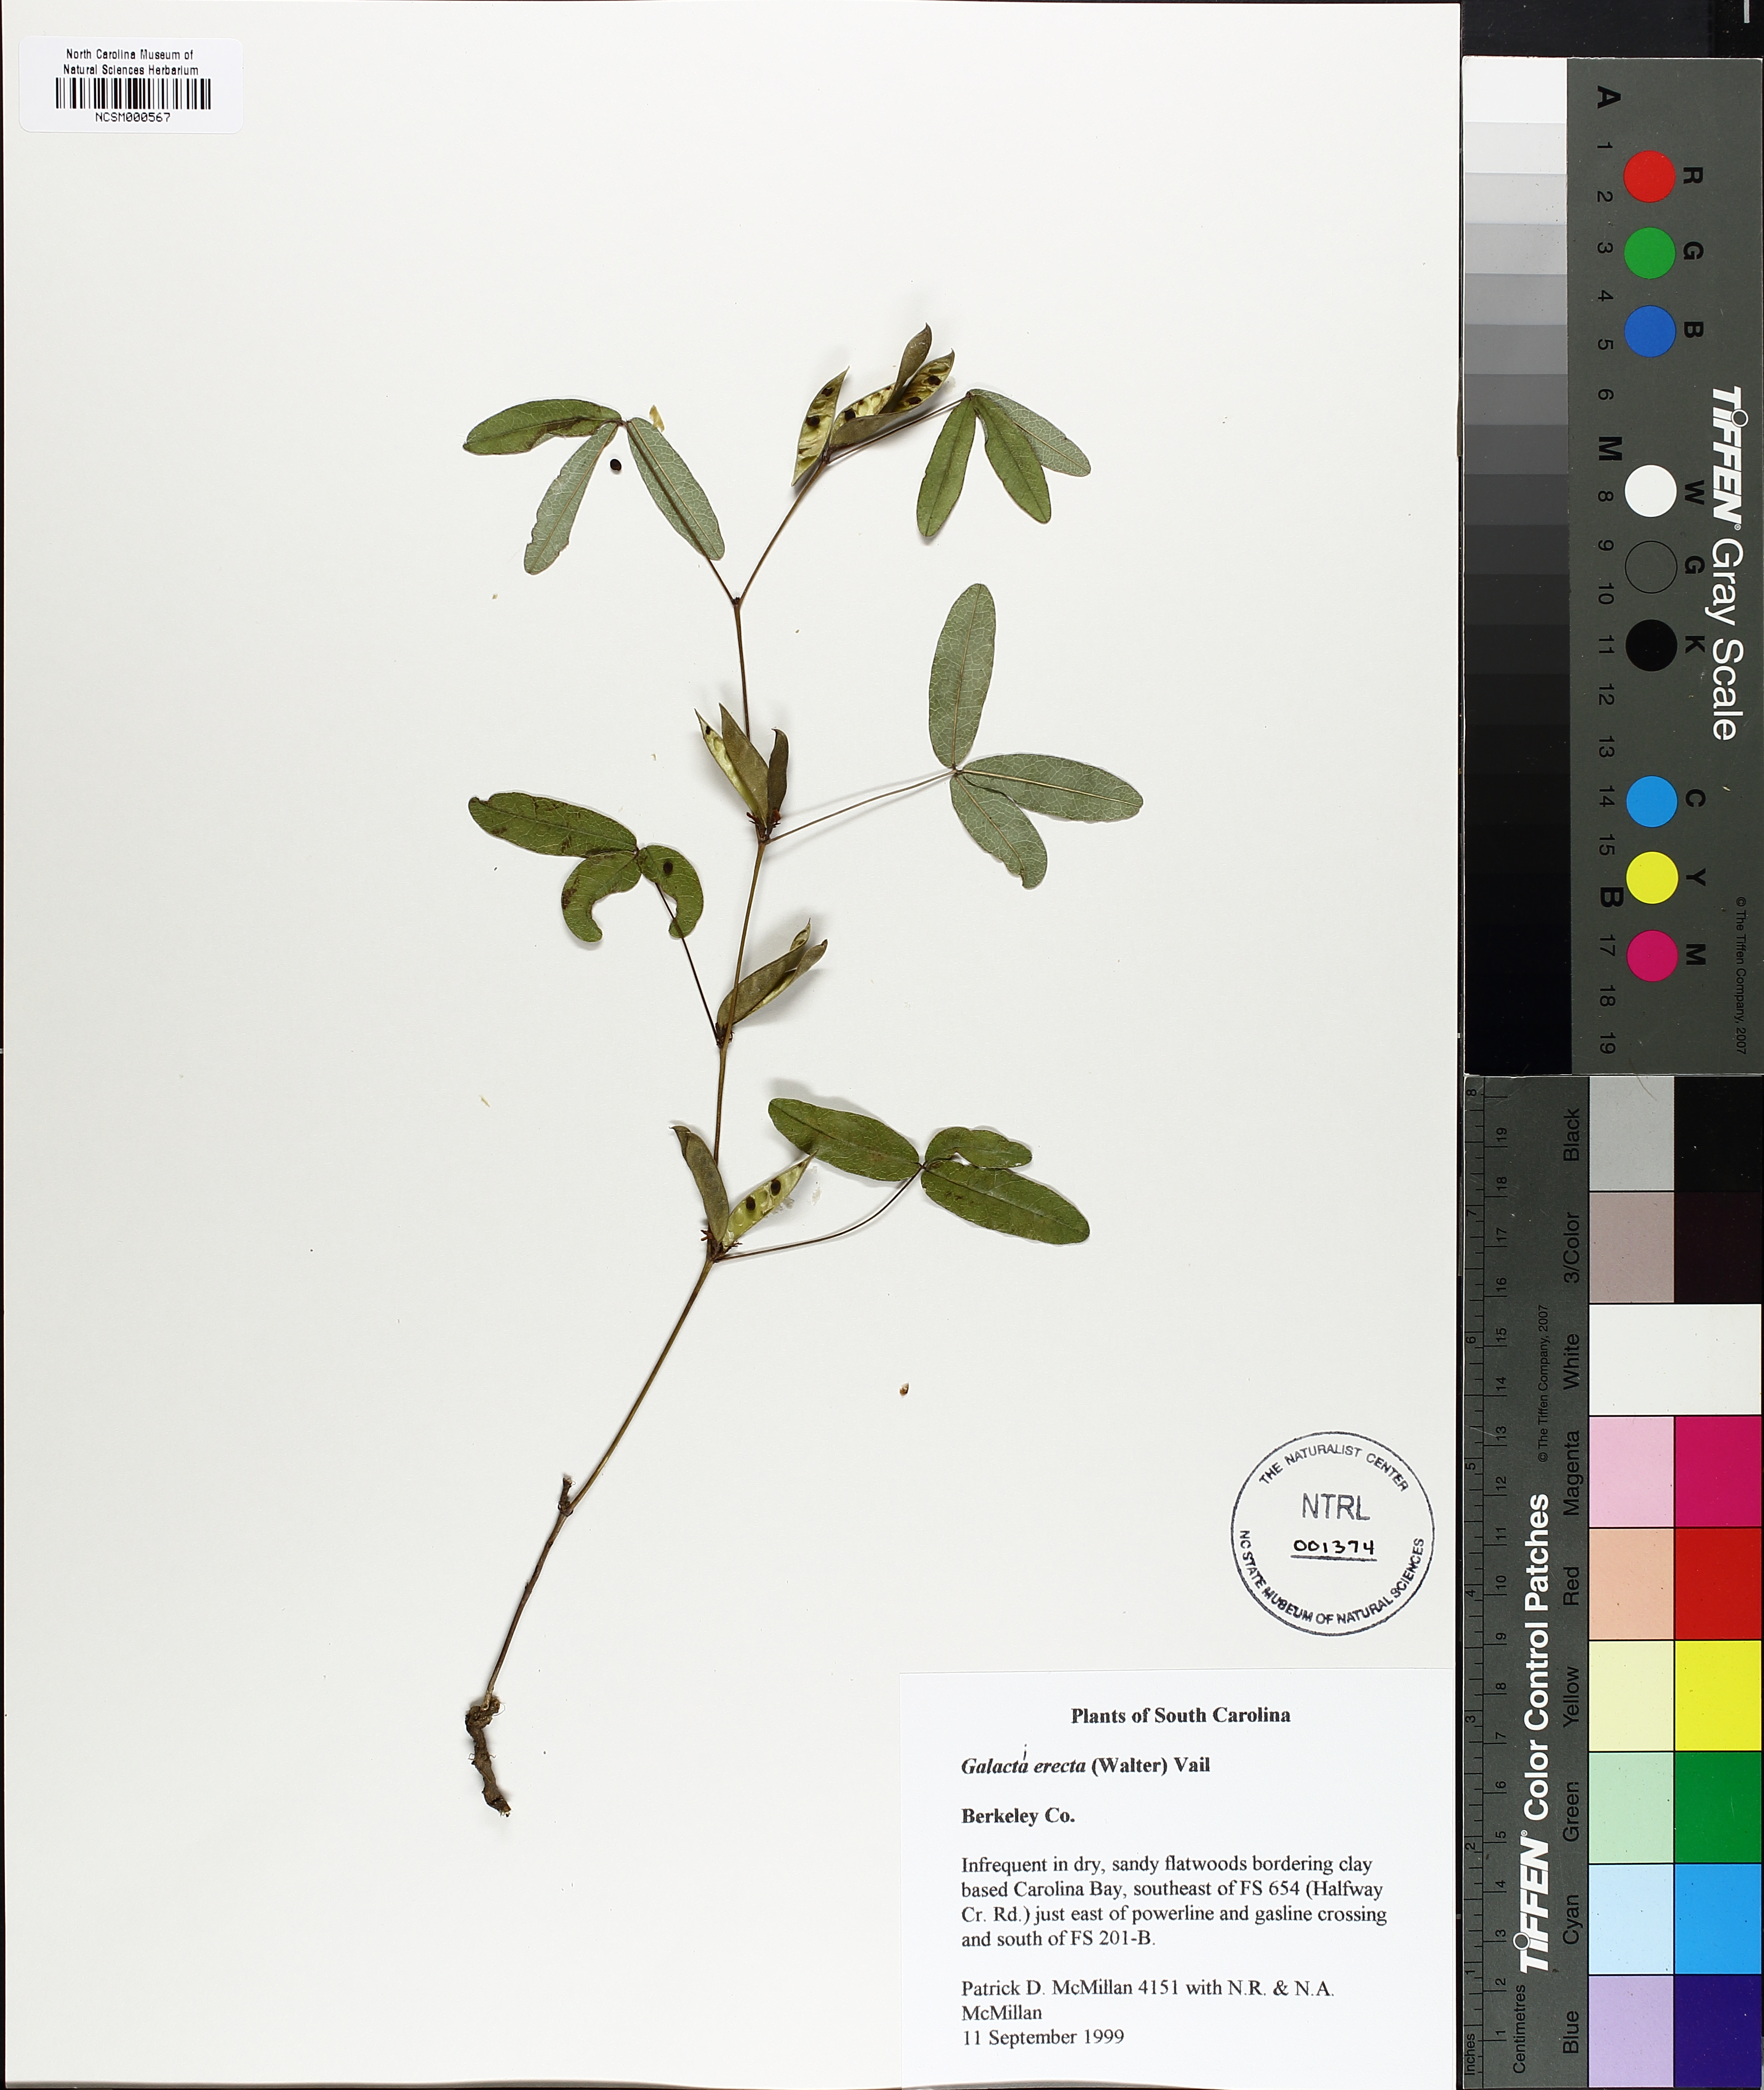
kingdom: Plantae
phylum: Tracheophyta
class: Magnoliopsida
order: Fabales
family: Fabaceae
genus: Galactia
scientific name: Galactia erecta
